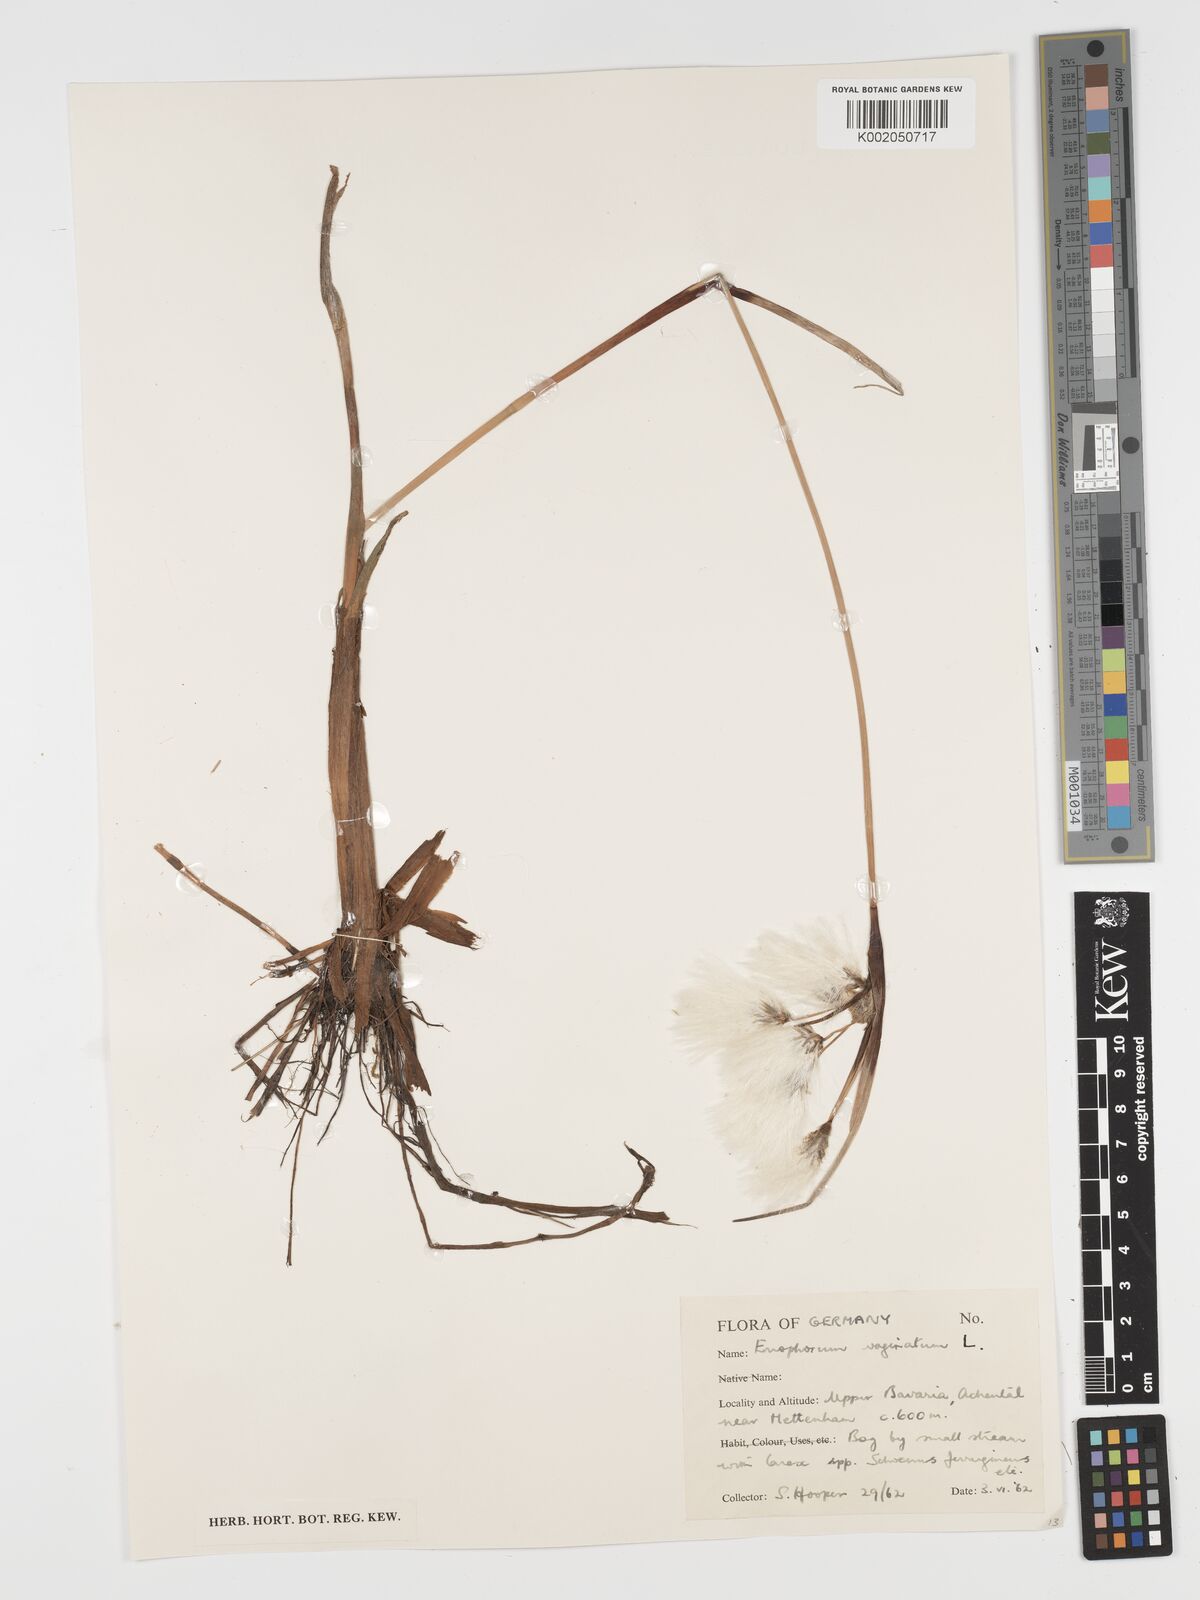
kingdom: Plantae
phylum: Tracheophyta
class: Liliopsida
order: Poales
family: Cyperaceae
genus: Eriophorum
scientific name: Eriophorum vaginatum
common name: Hare's-tail cottongrass
